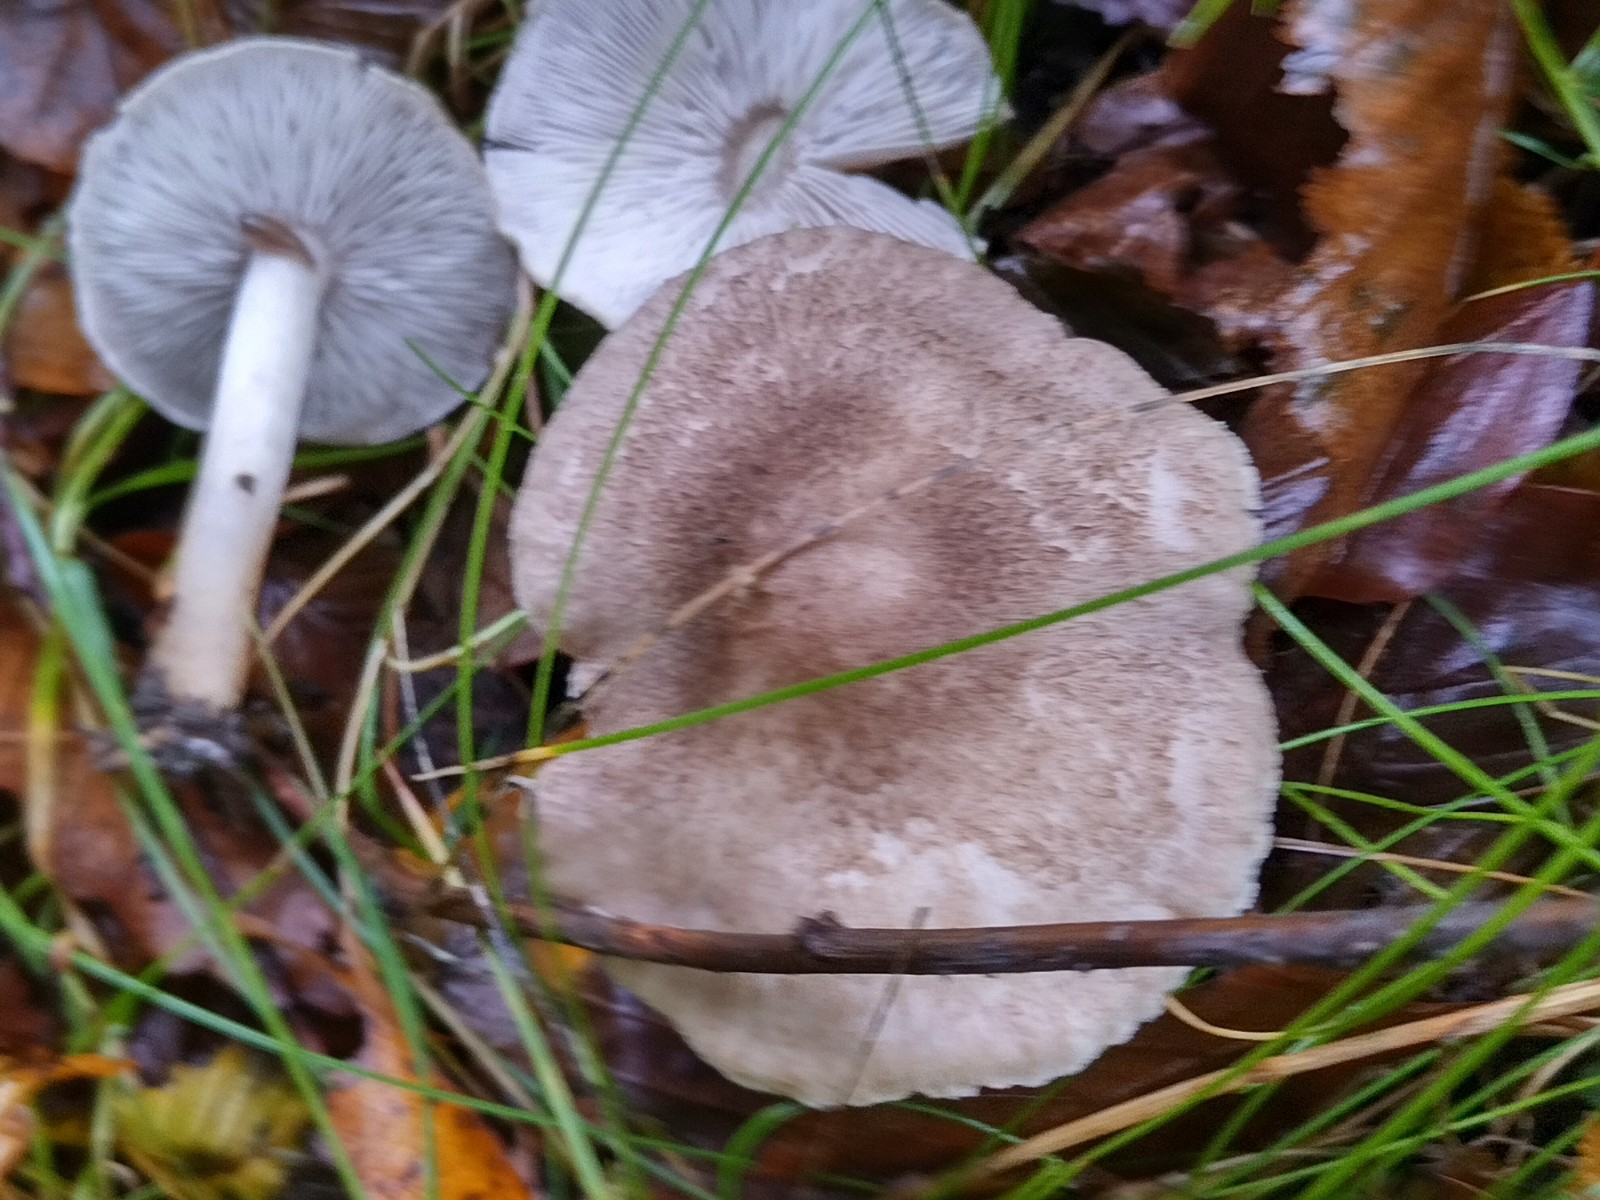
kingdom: Fungi
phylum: Basidiomycota
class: Agaricomycetes
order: Agaricales
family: Tricholomataceae
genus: Tricholoma
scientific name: Tricholoma scalpturatum
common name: gulplettet ridderhat
